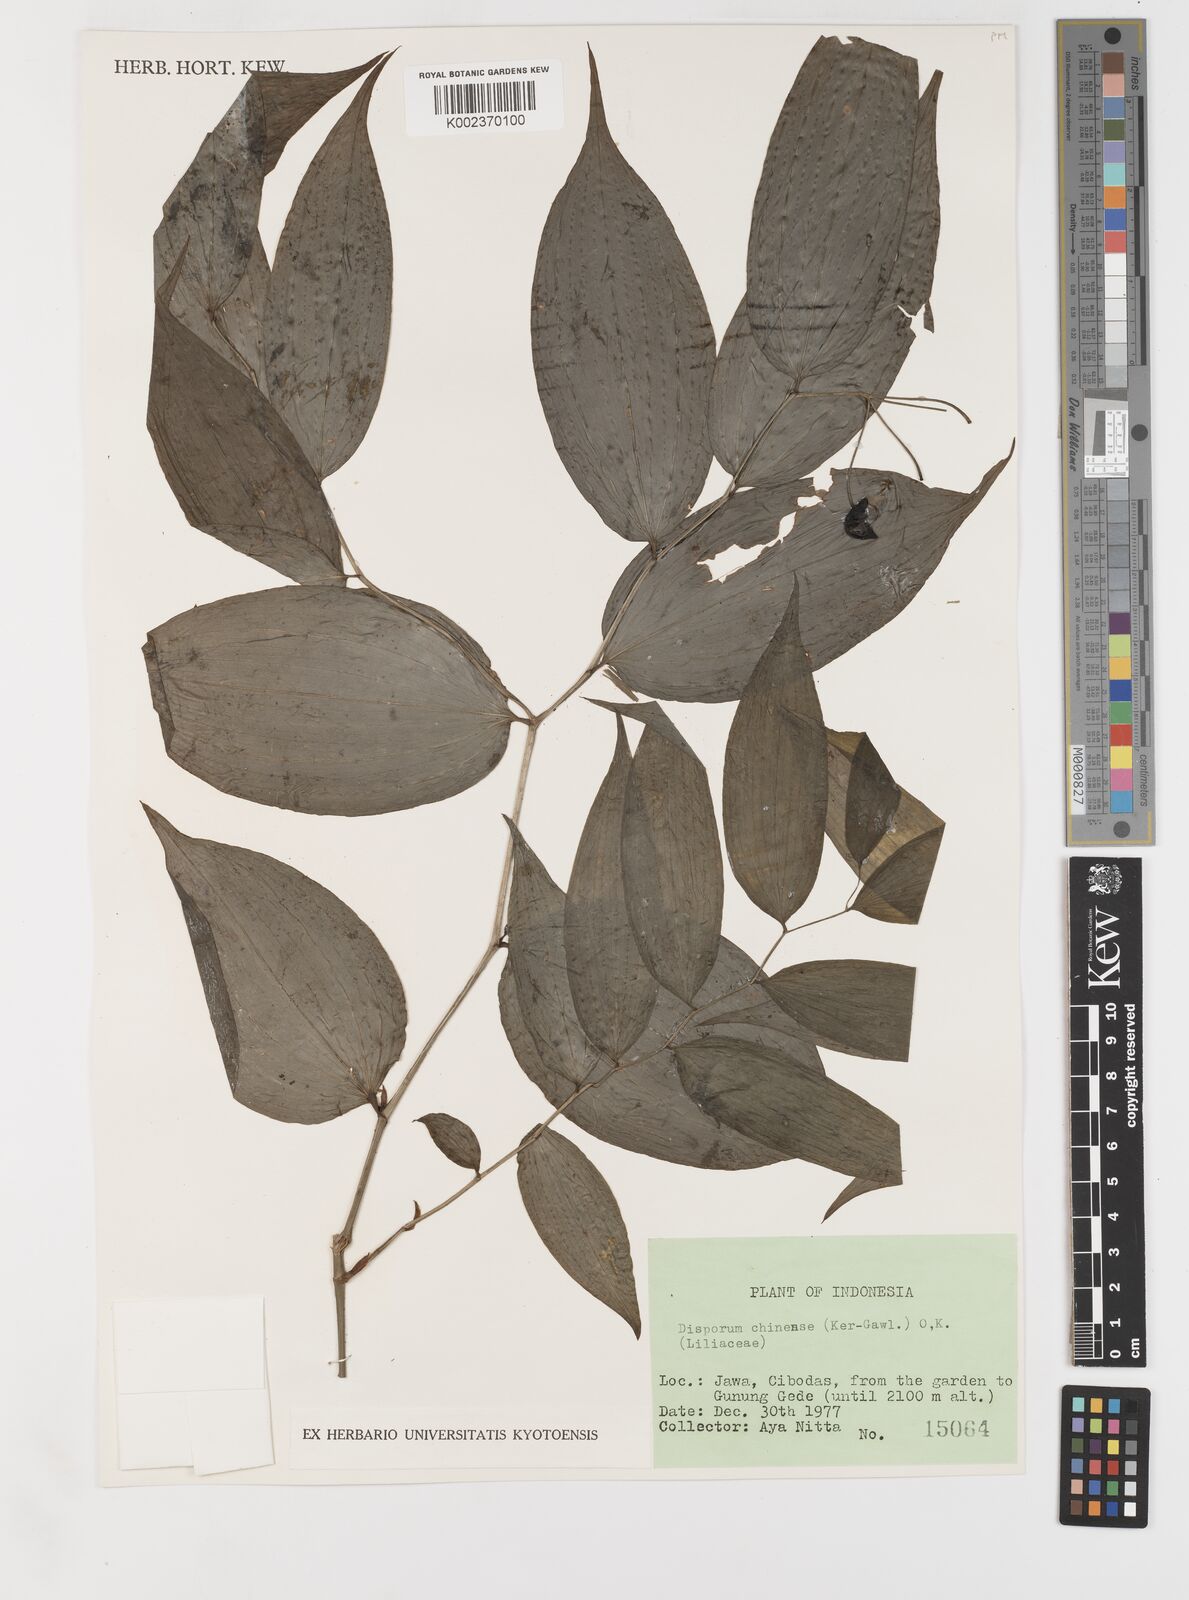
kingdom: Plantae
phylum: Tracheophyta
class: Liliopsida
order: Liliales
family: Colchicaceae
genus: Disporum
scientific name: Disporum cantoniense
